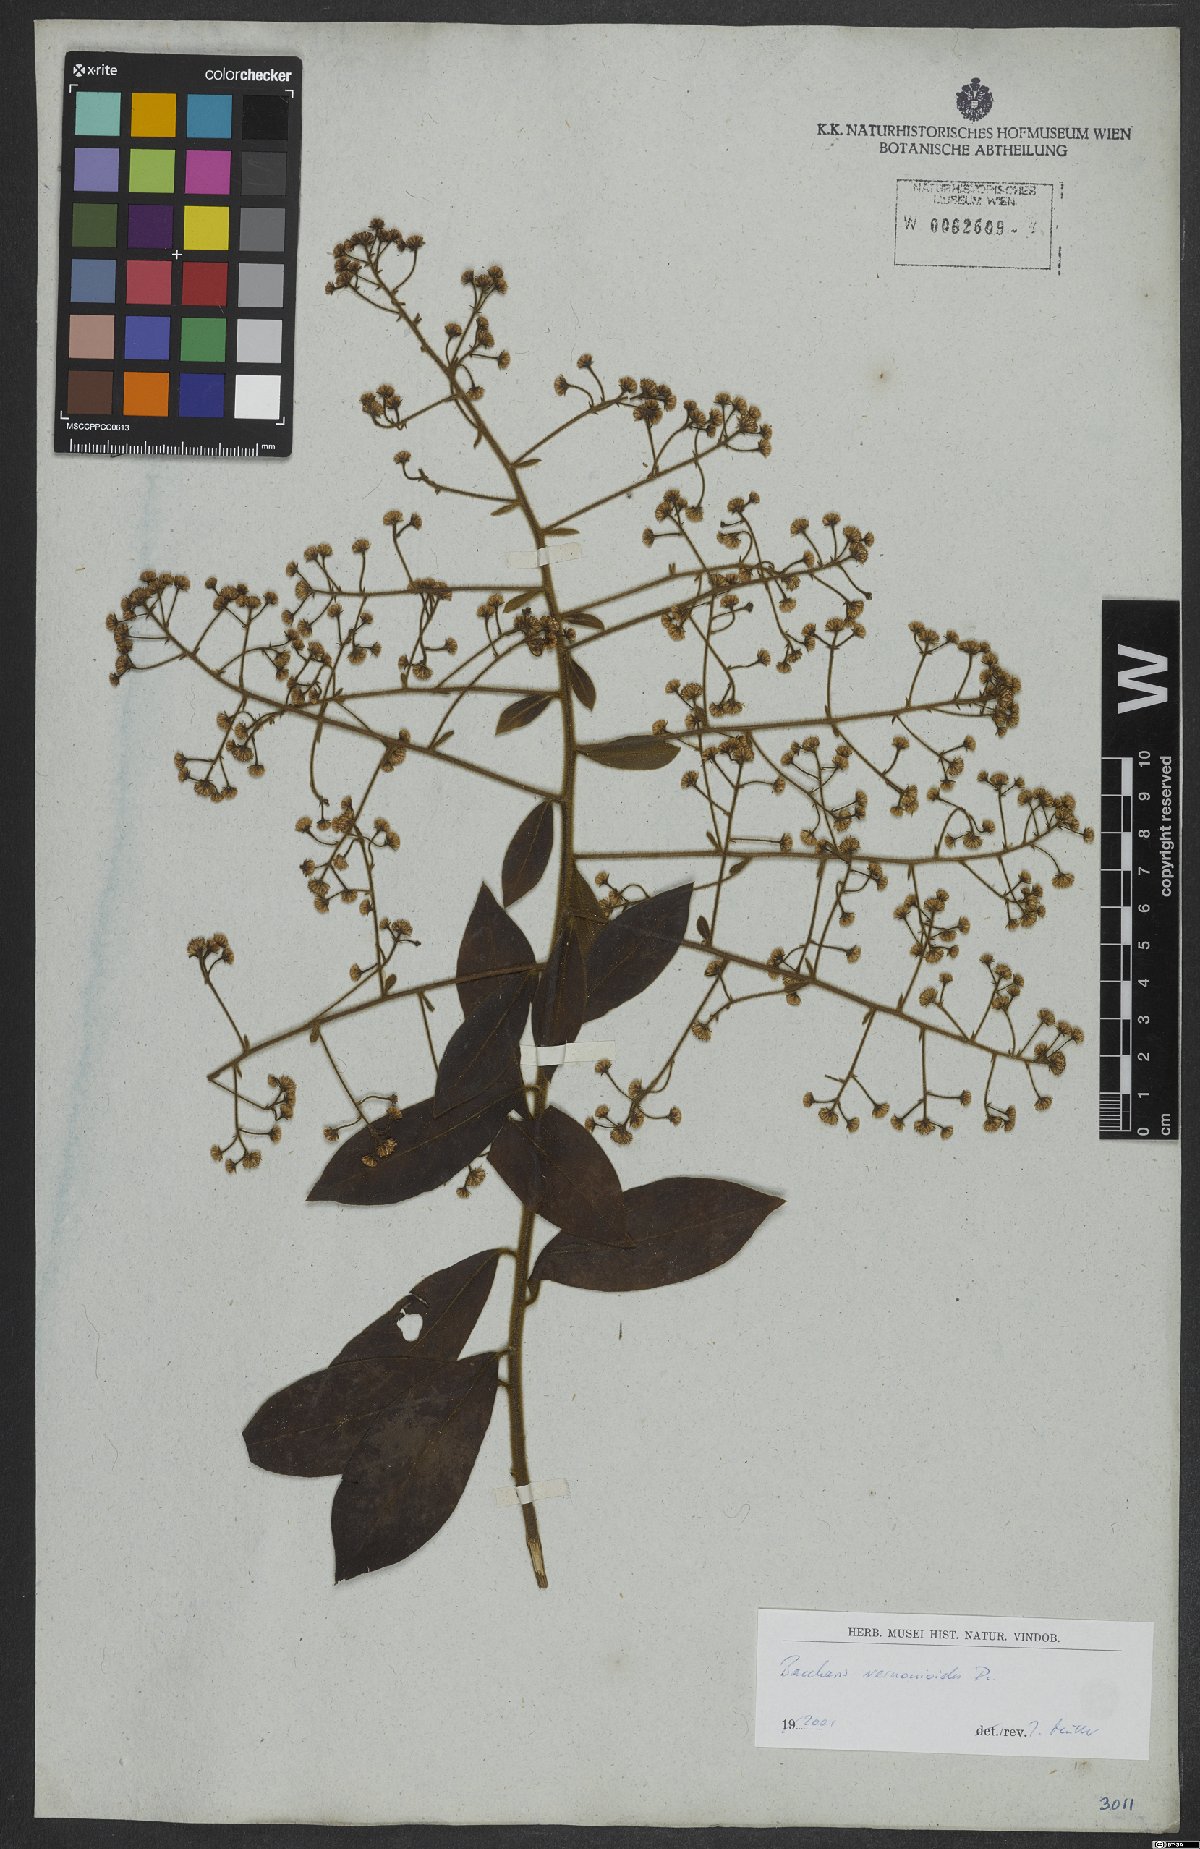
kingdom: Plantae
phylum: Tracheophyta
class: Magnoliopsida
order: Asterales
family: Asteraceae
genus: Baccharis
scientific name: Baccharis rufidula
